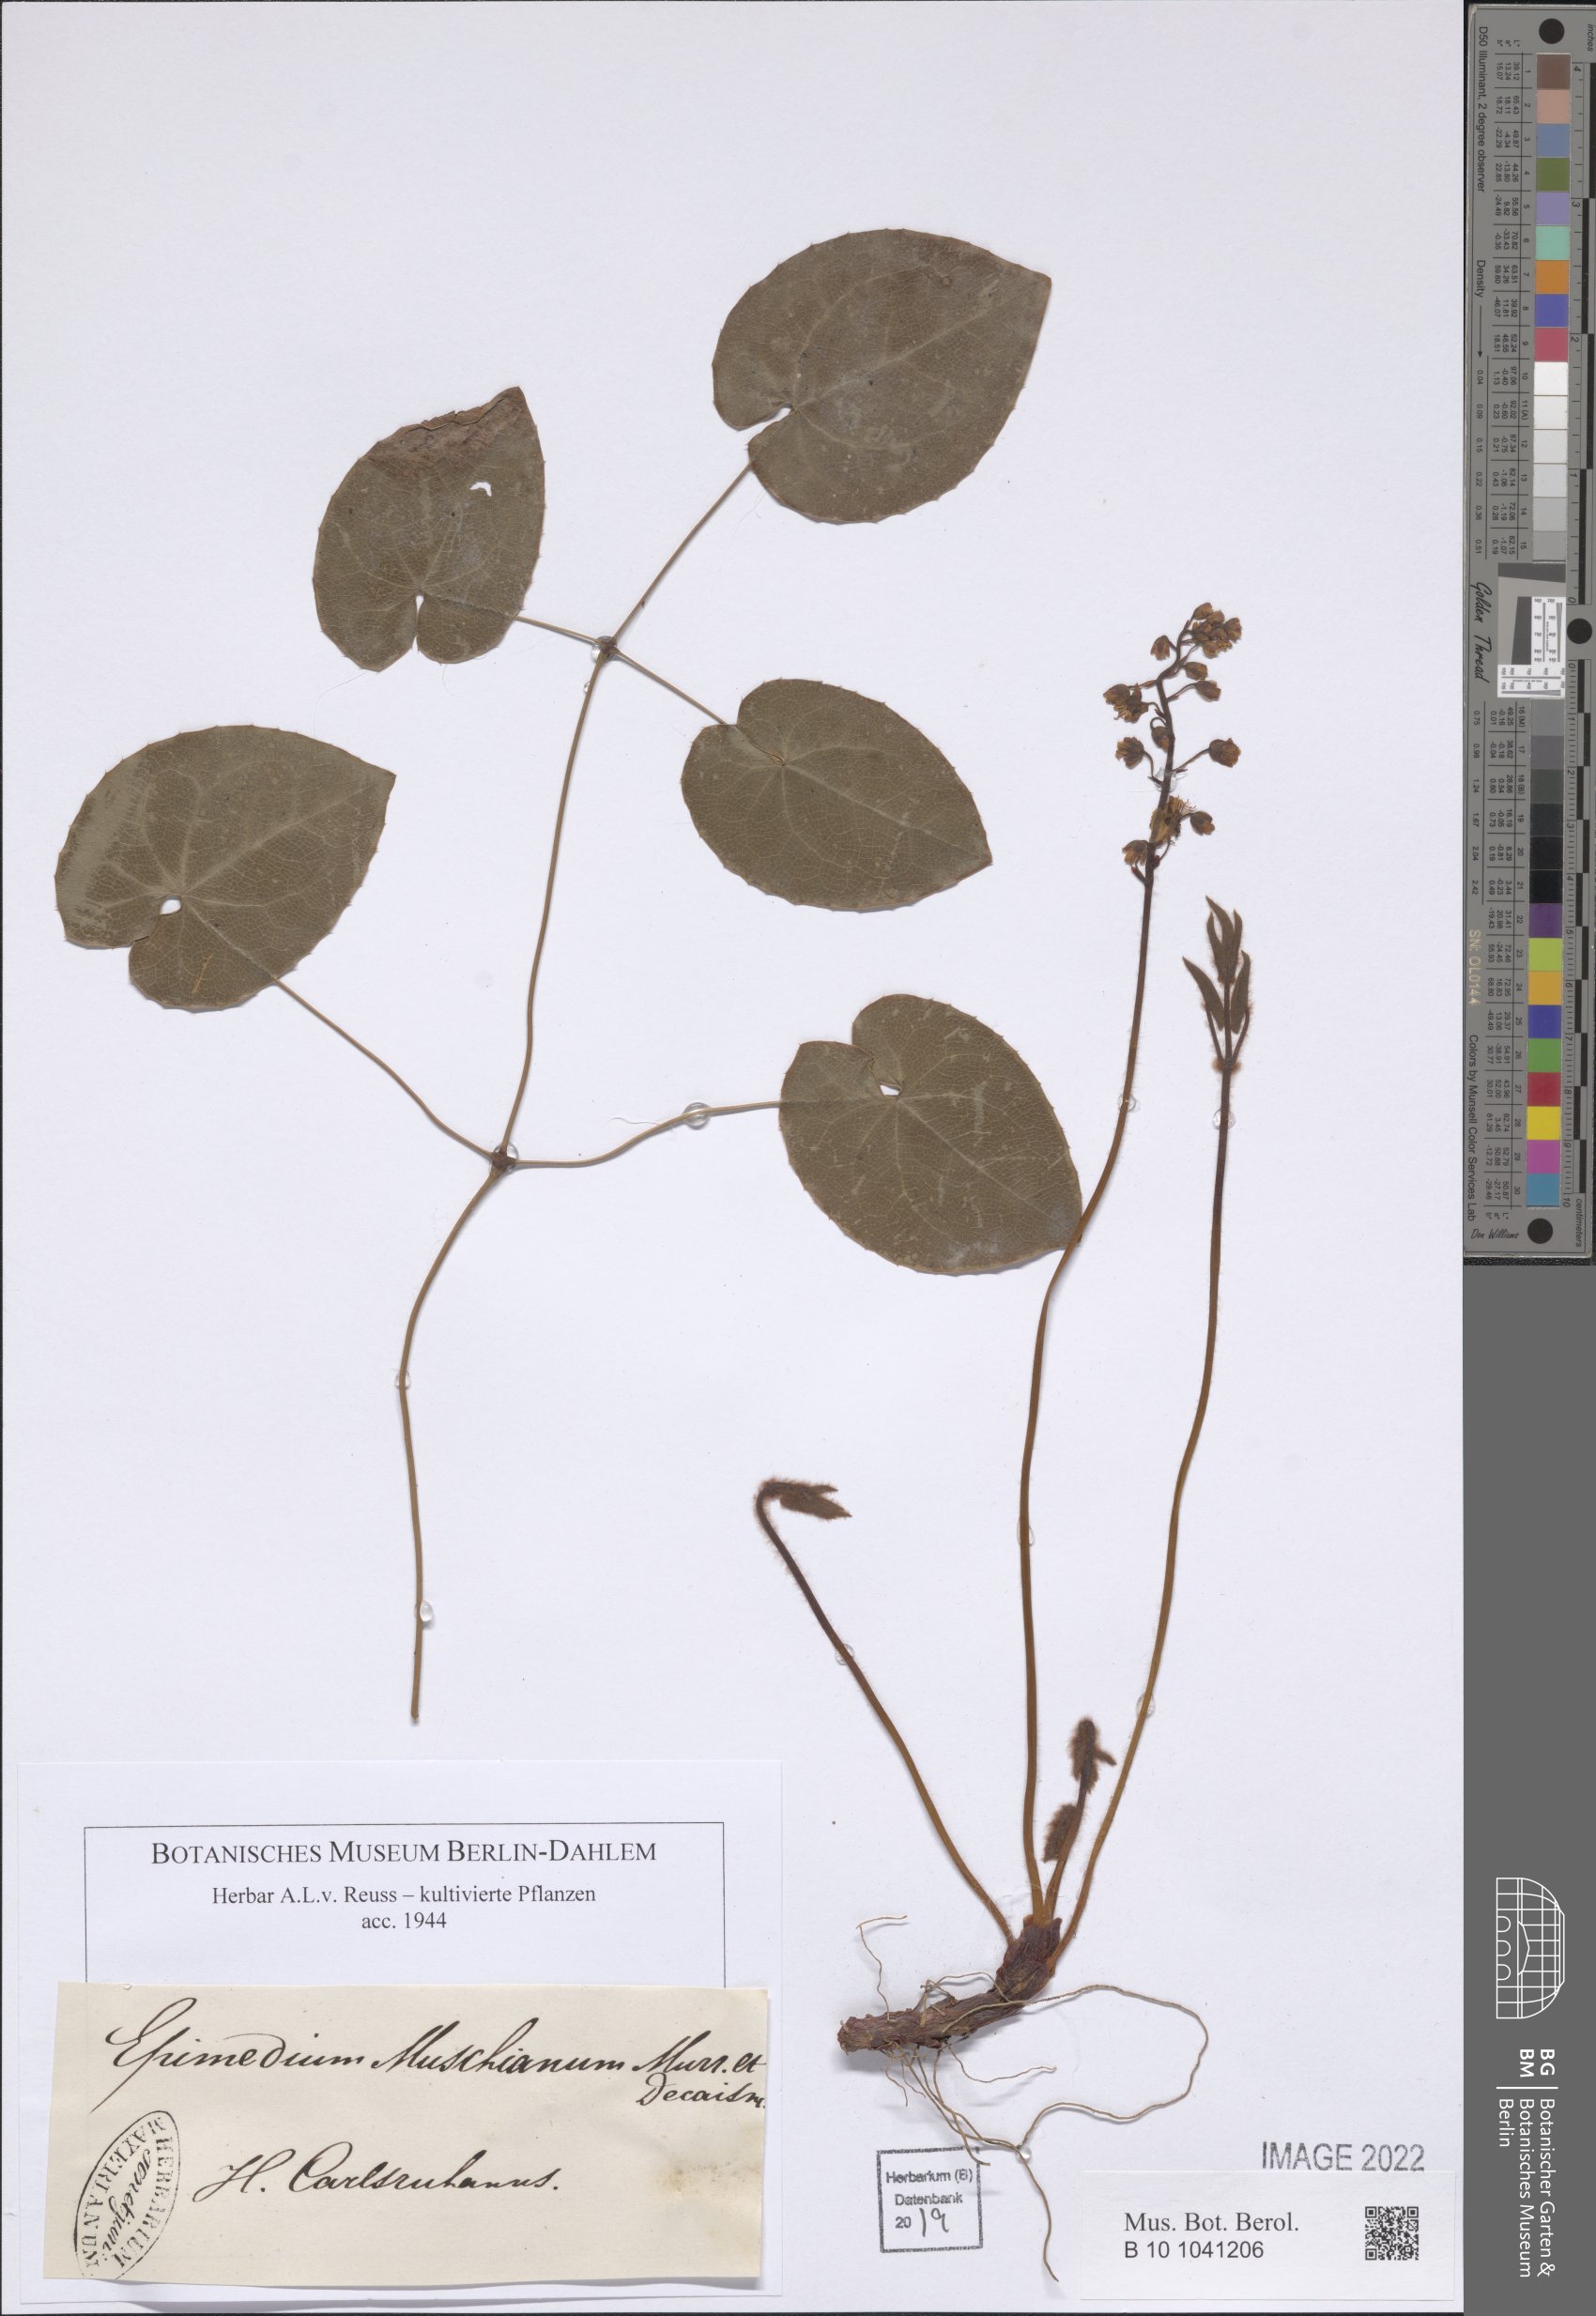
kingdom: Plantae
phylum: Tracheophyta
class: Magnoliopsida
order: Ranunculales
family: Berberidaceae
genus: Epimedium
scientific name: Epimedium grandiflorum
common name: Barrenwort
